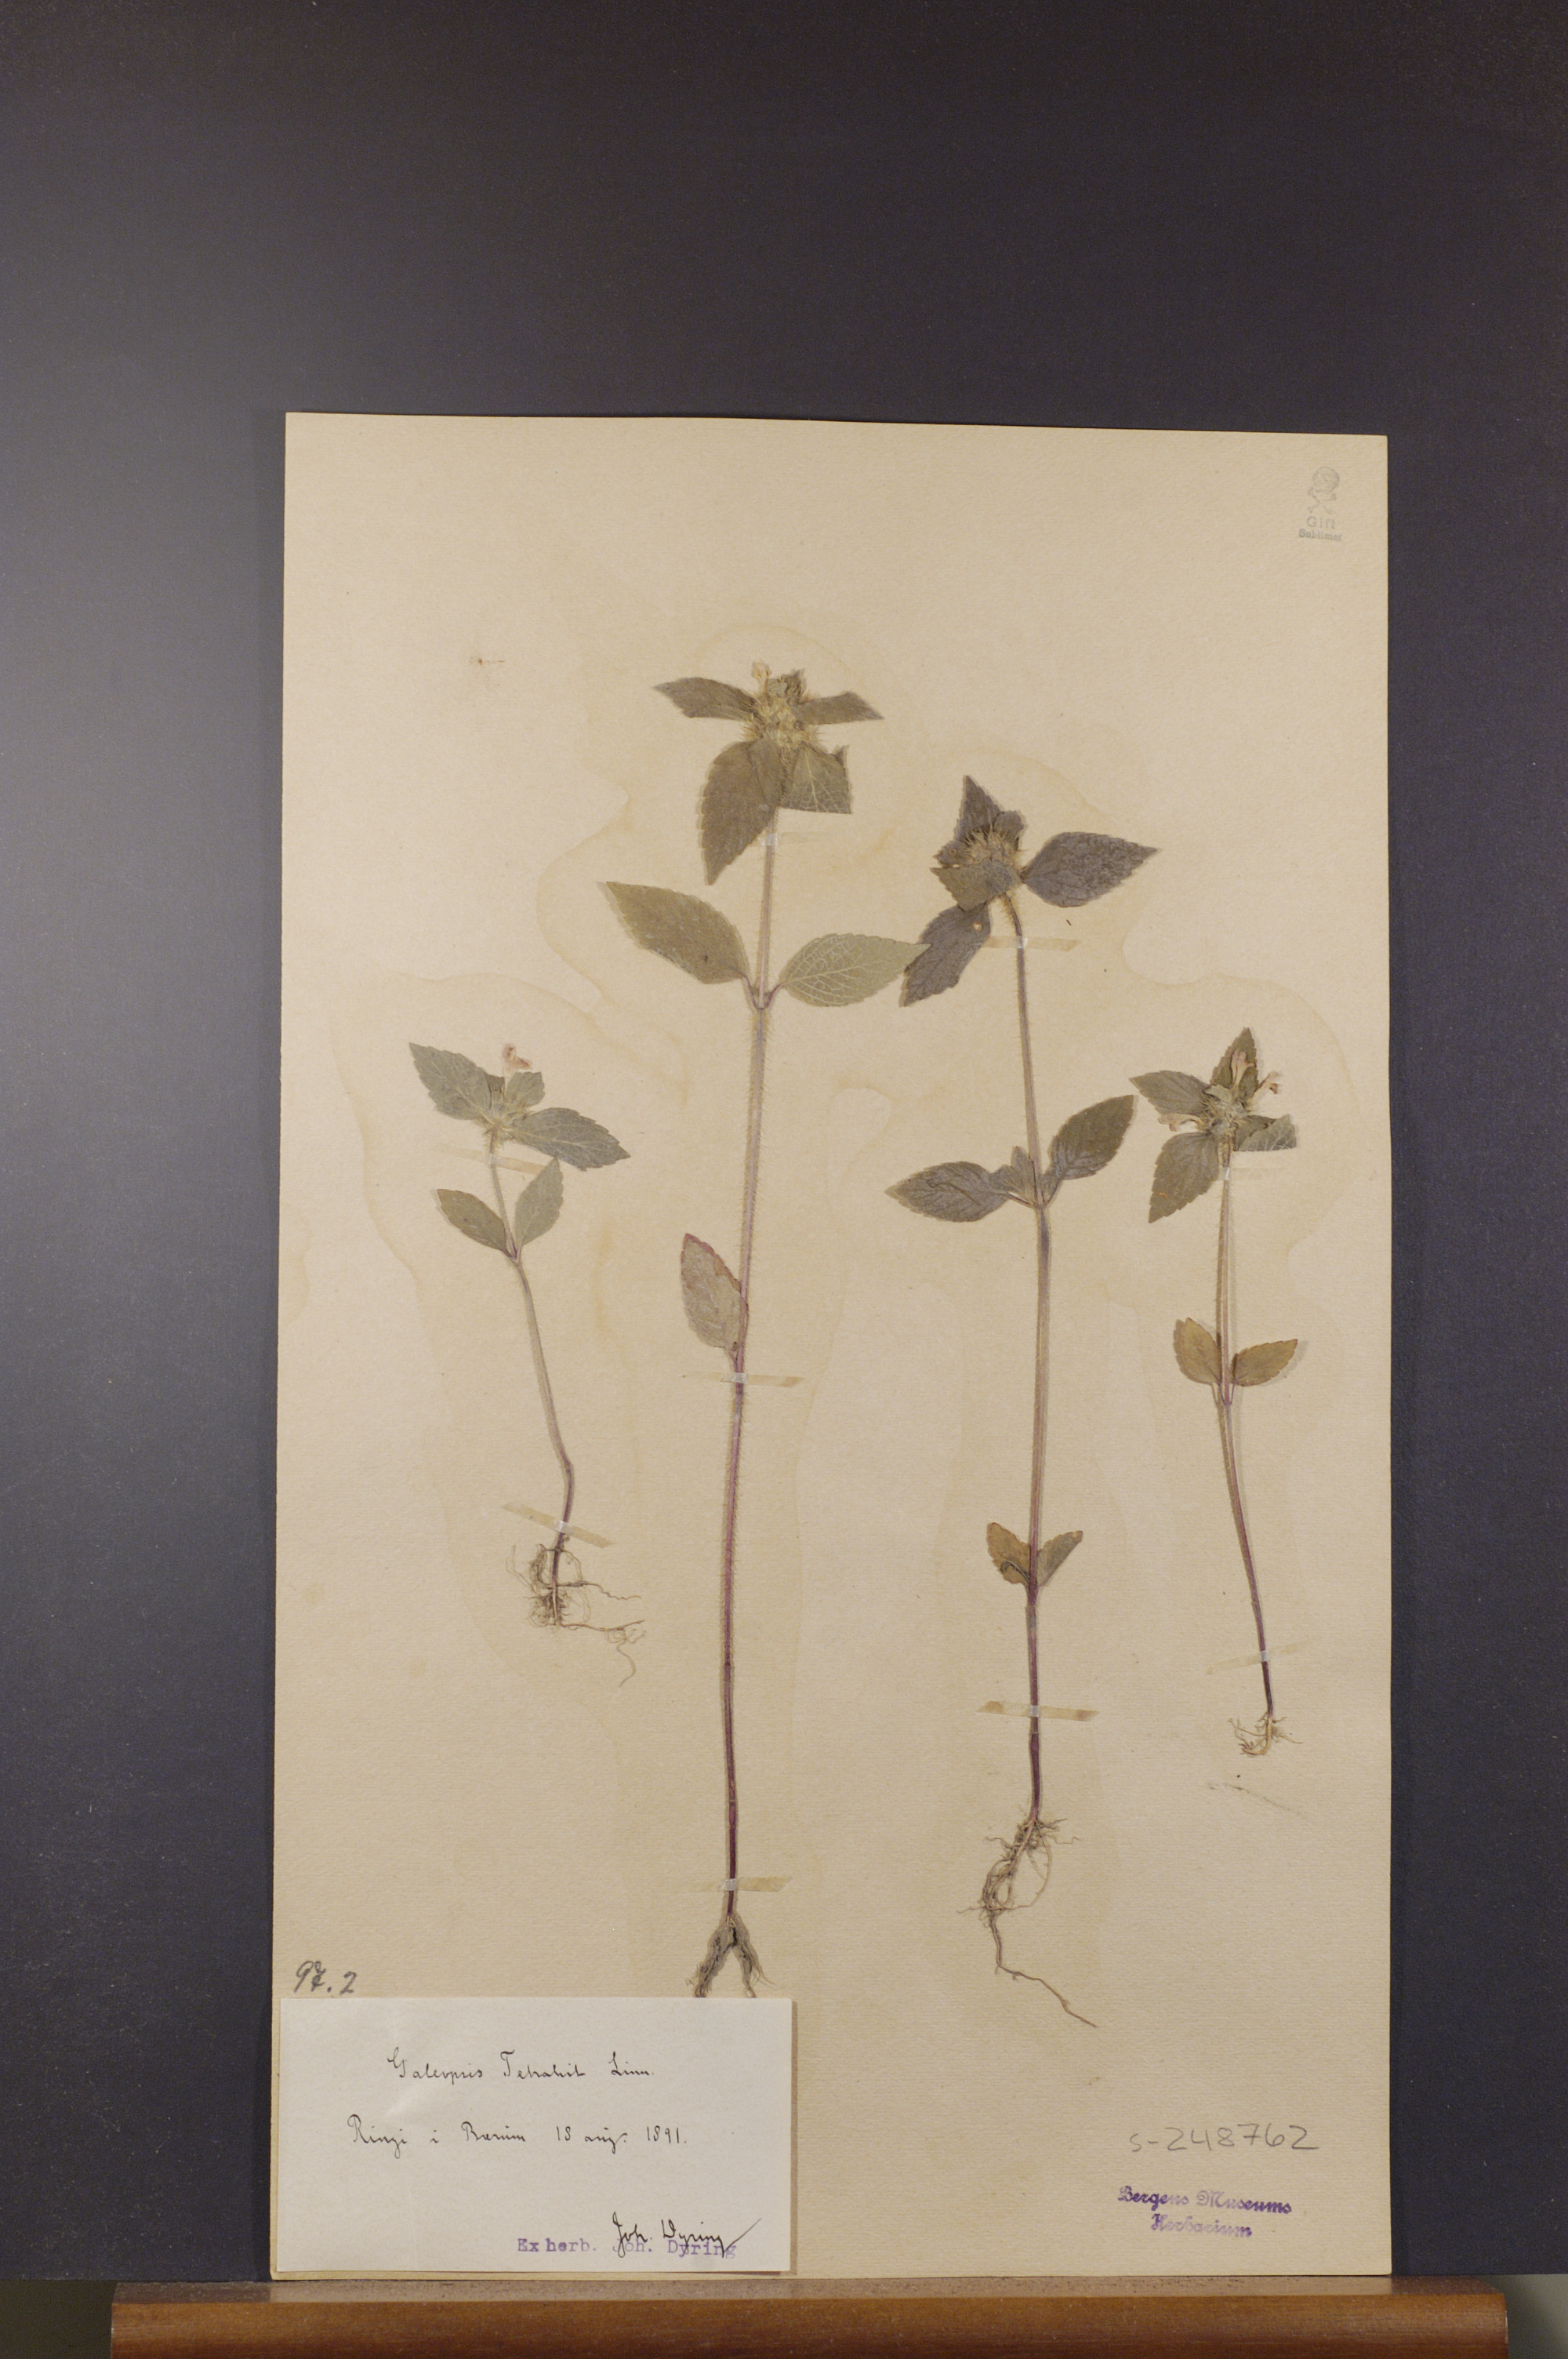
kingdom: Plantae
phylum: Tracheophyta
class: Magnoliopsida
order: Lamiales
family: Lamiaceae
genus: Galeopsis
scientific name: Galeopsis tetrahit
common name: Common hemp-nettle
